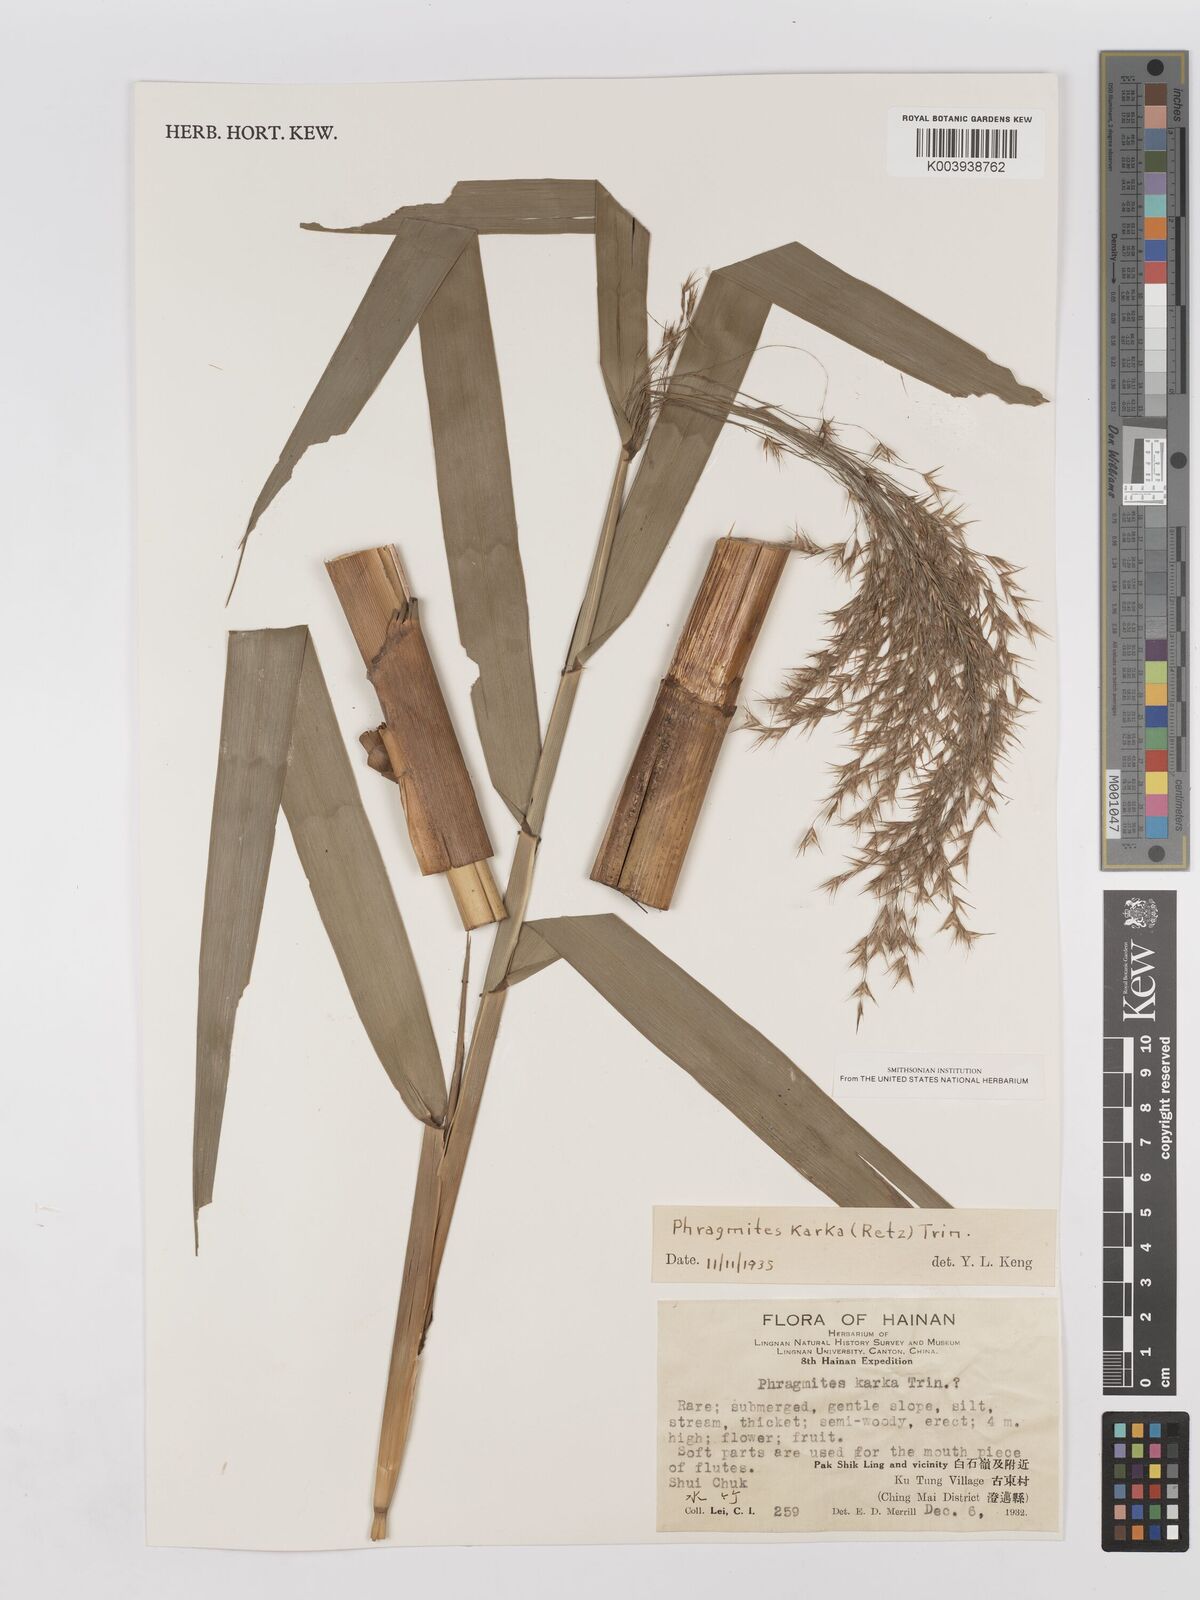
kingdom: Plantae
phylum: Tracheophyta
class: Liliopsida
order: Poales
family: Poaceae
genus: Phragmites
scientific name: Phragmites karka
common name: Tropical reed
